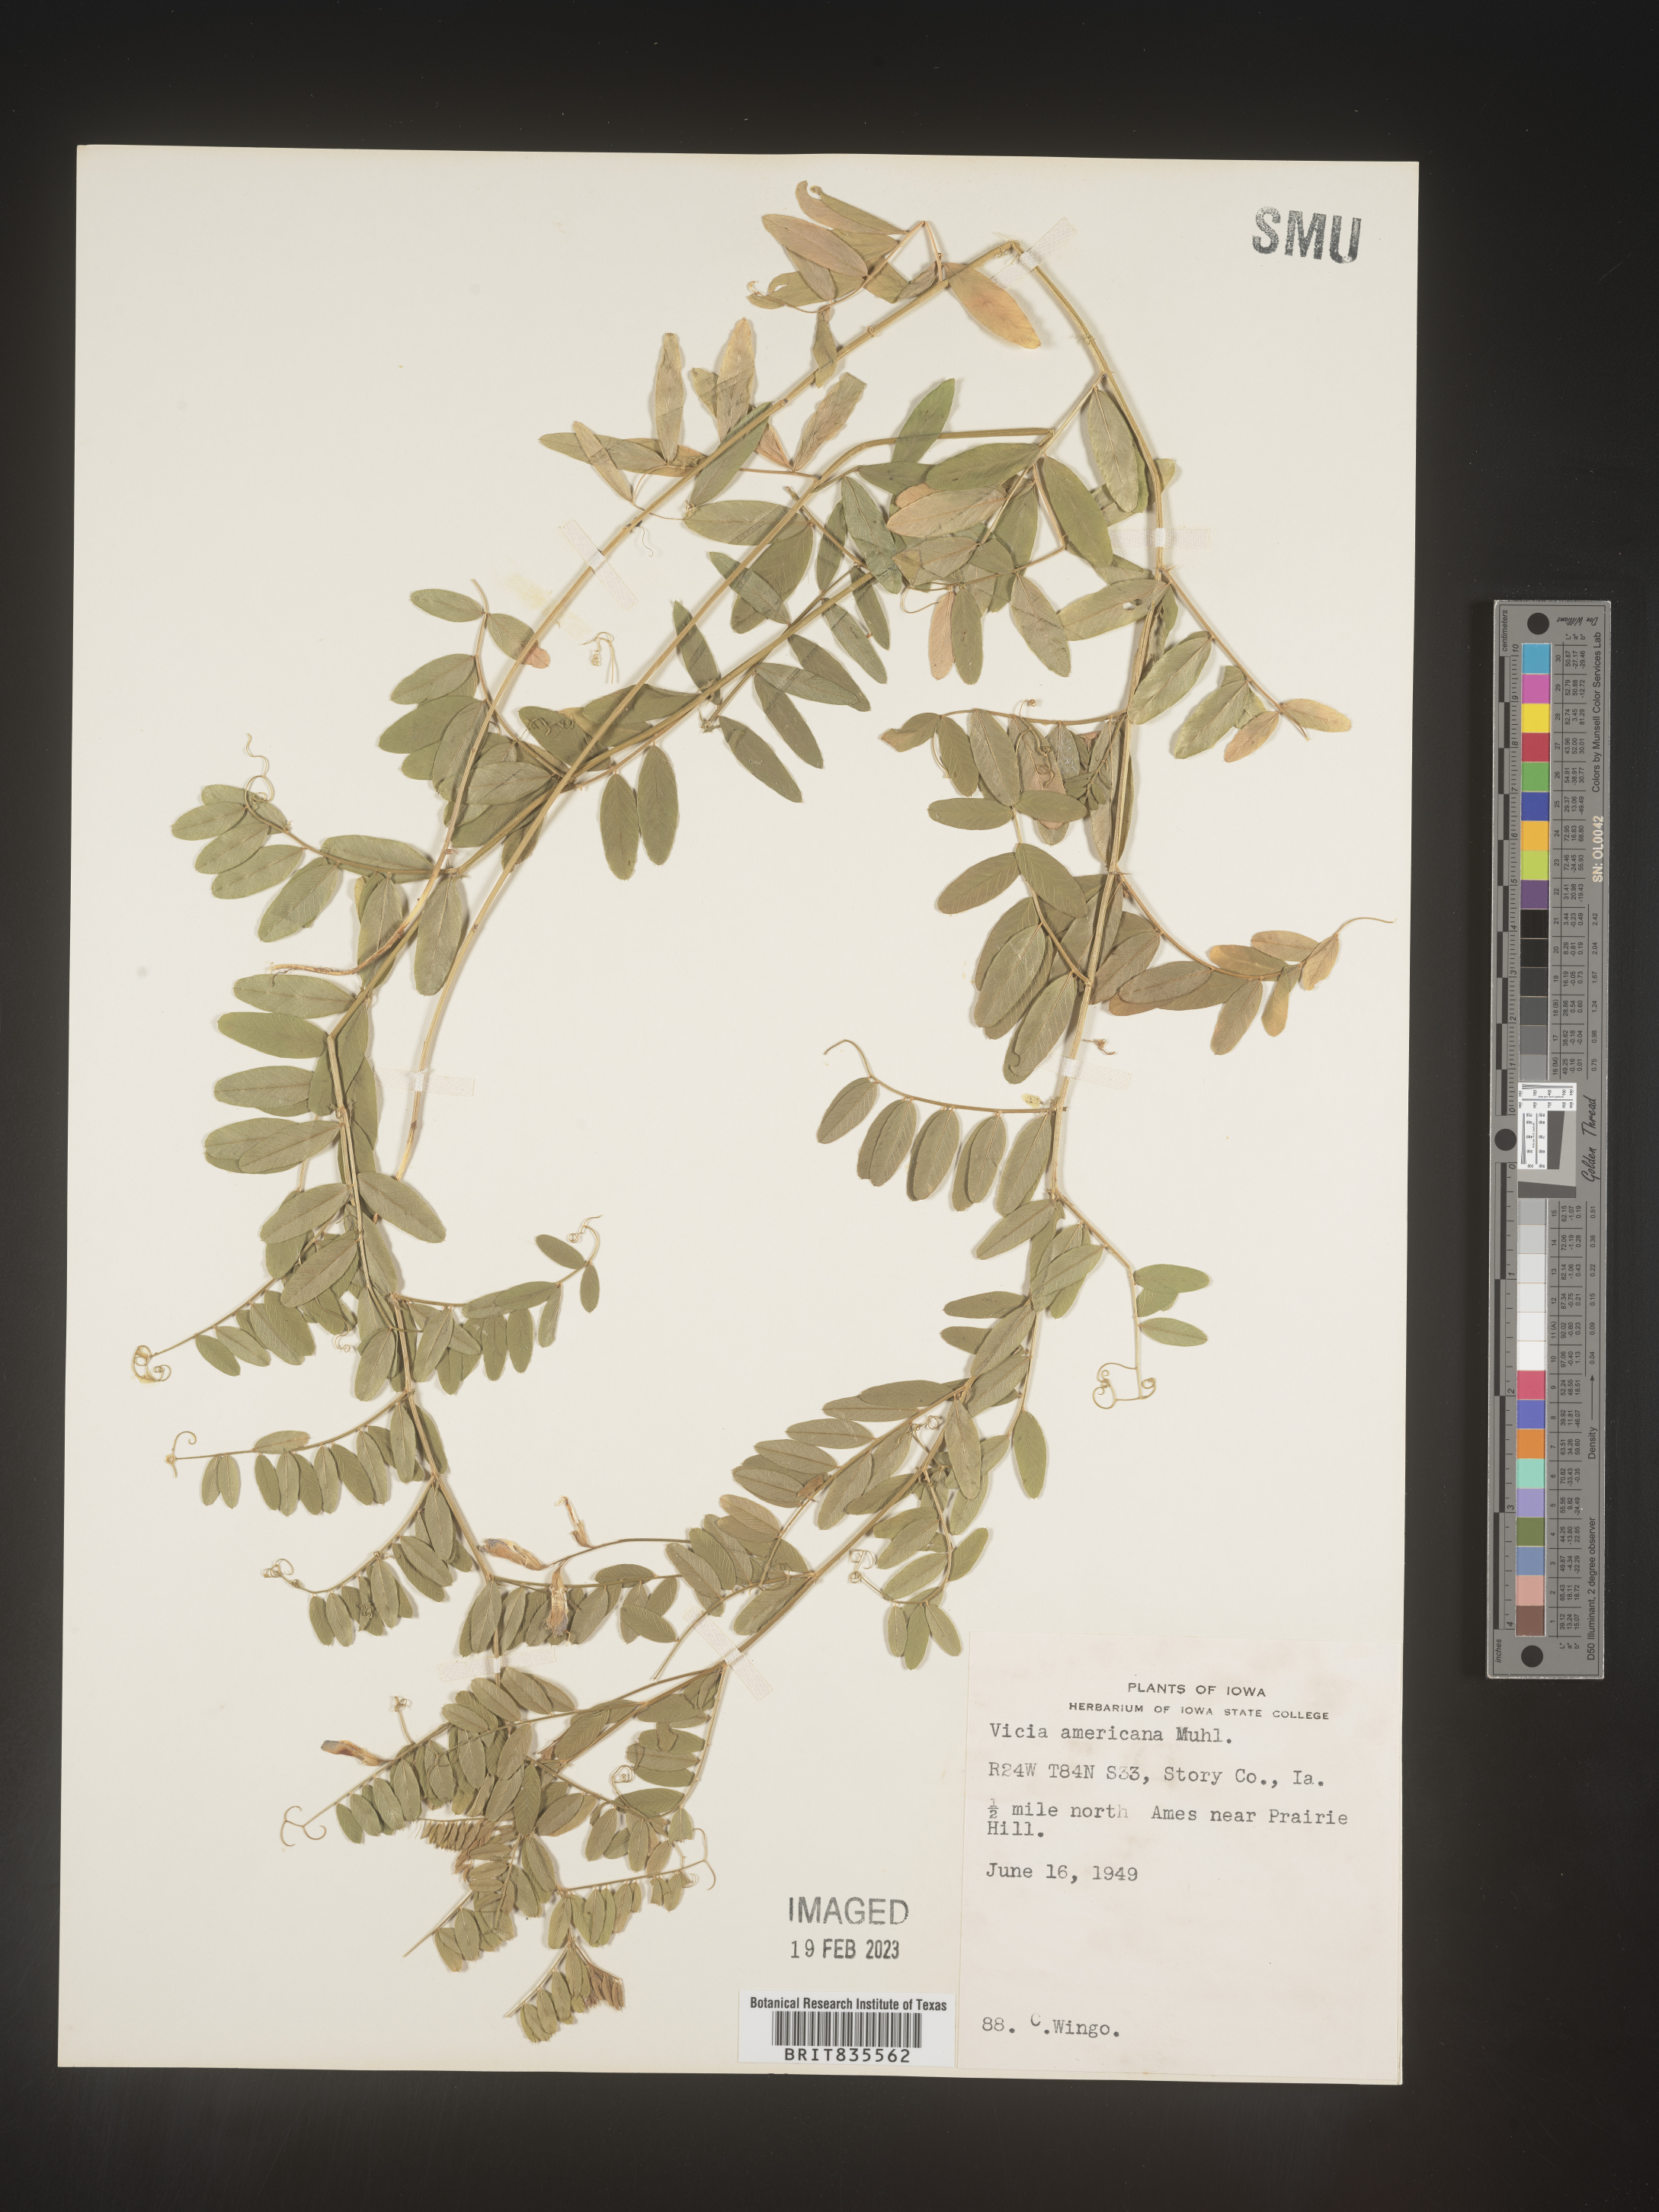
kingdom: Plantae
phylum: Tracheophyta
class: Magnoliopsida
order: Fabales
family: Fabaceae
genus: Vicia
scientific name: Vicia americana
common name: American vetch
